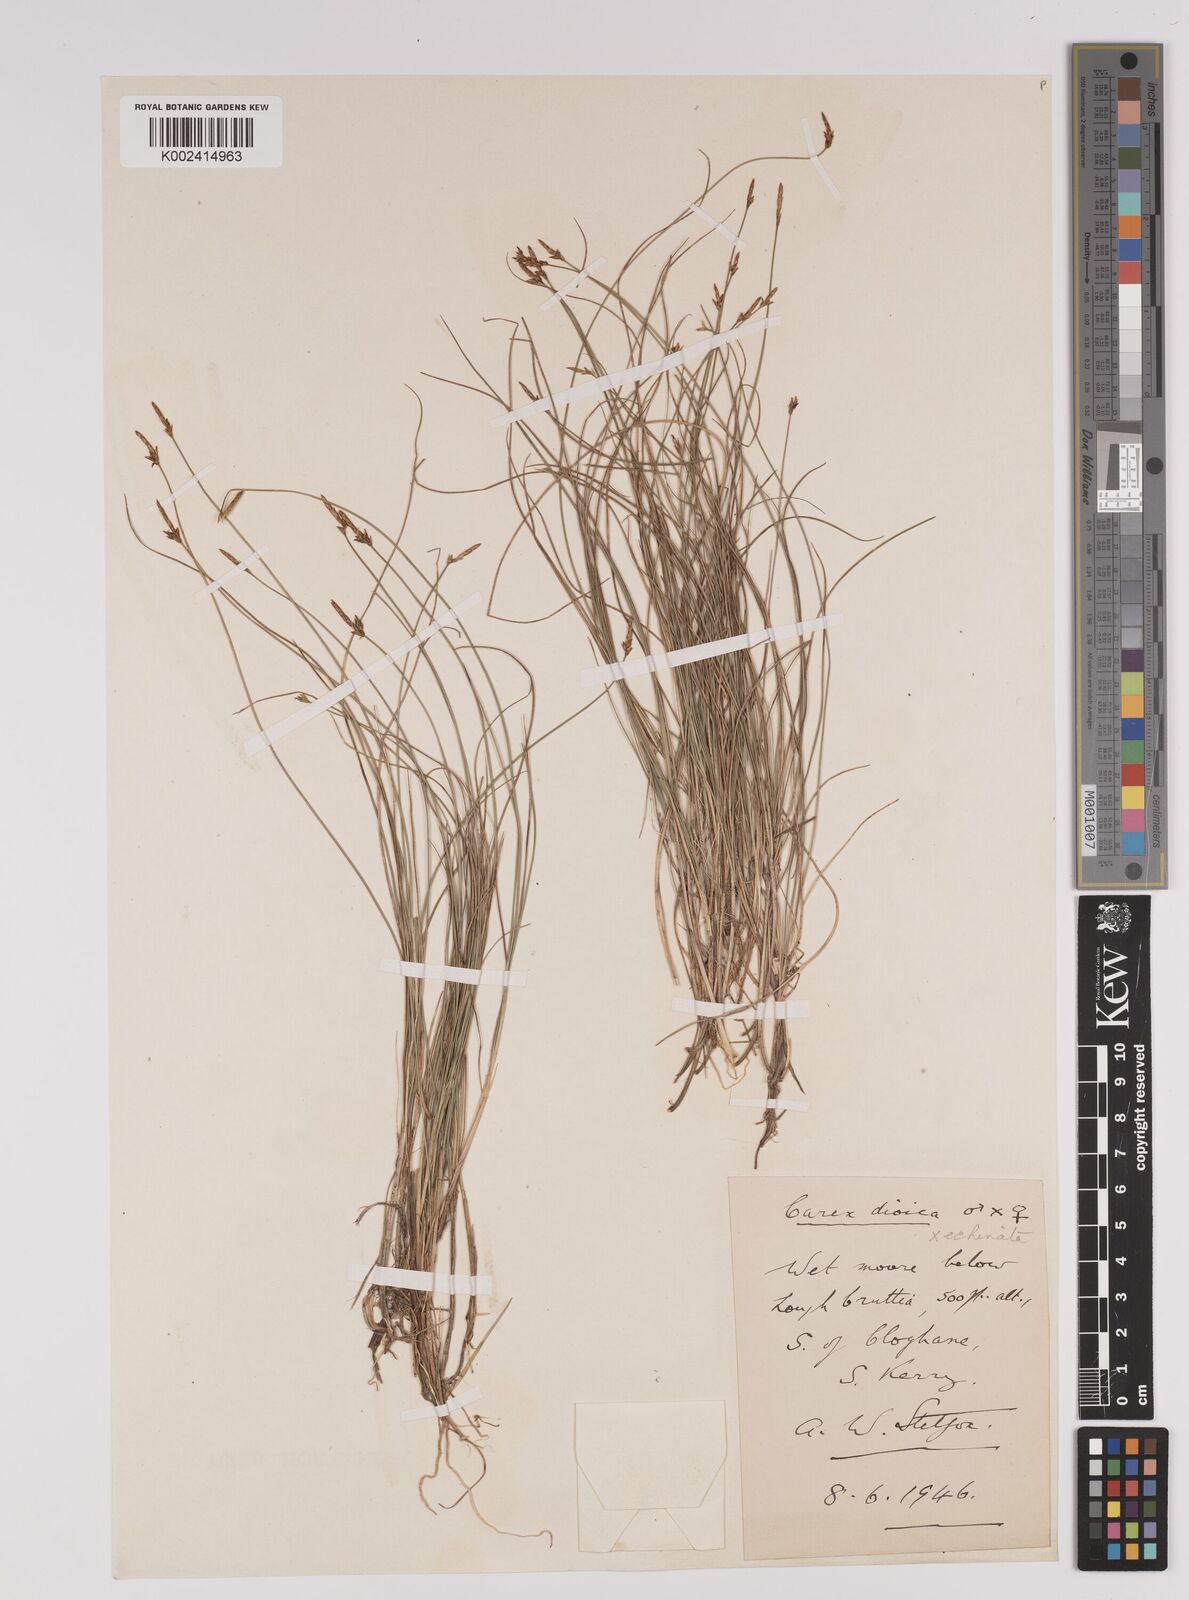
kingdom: Plantae
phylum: Tracheophyta
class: Liliopsida
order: Poales
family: Cyperaceae
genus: Carex
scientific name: Carex dioica
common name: Dioecious sedge
